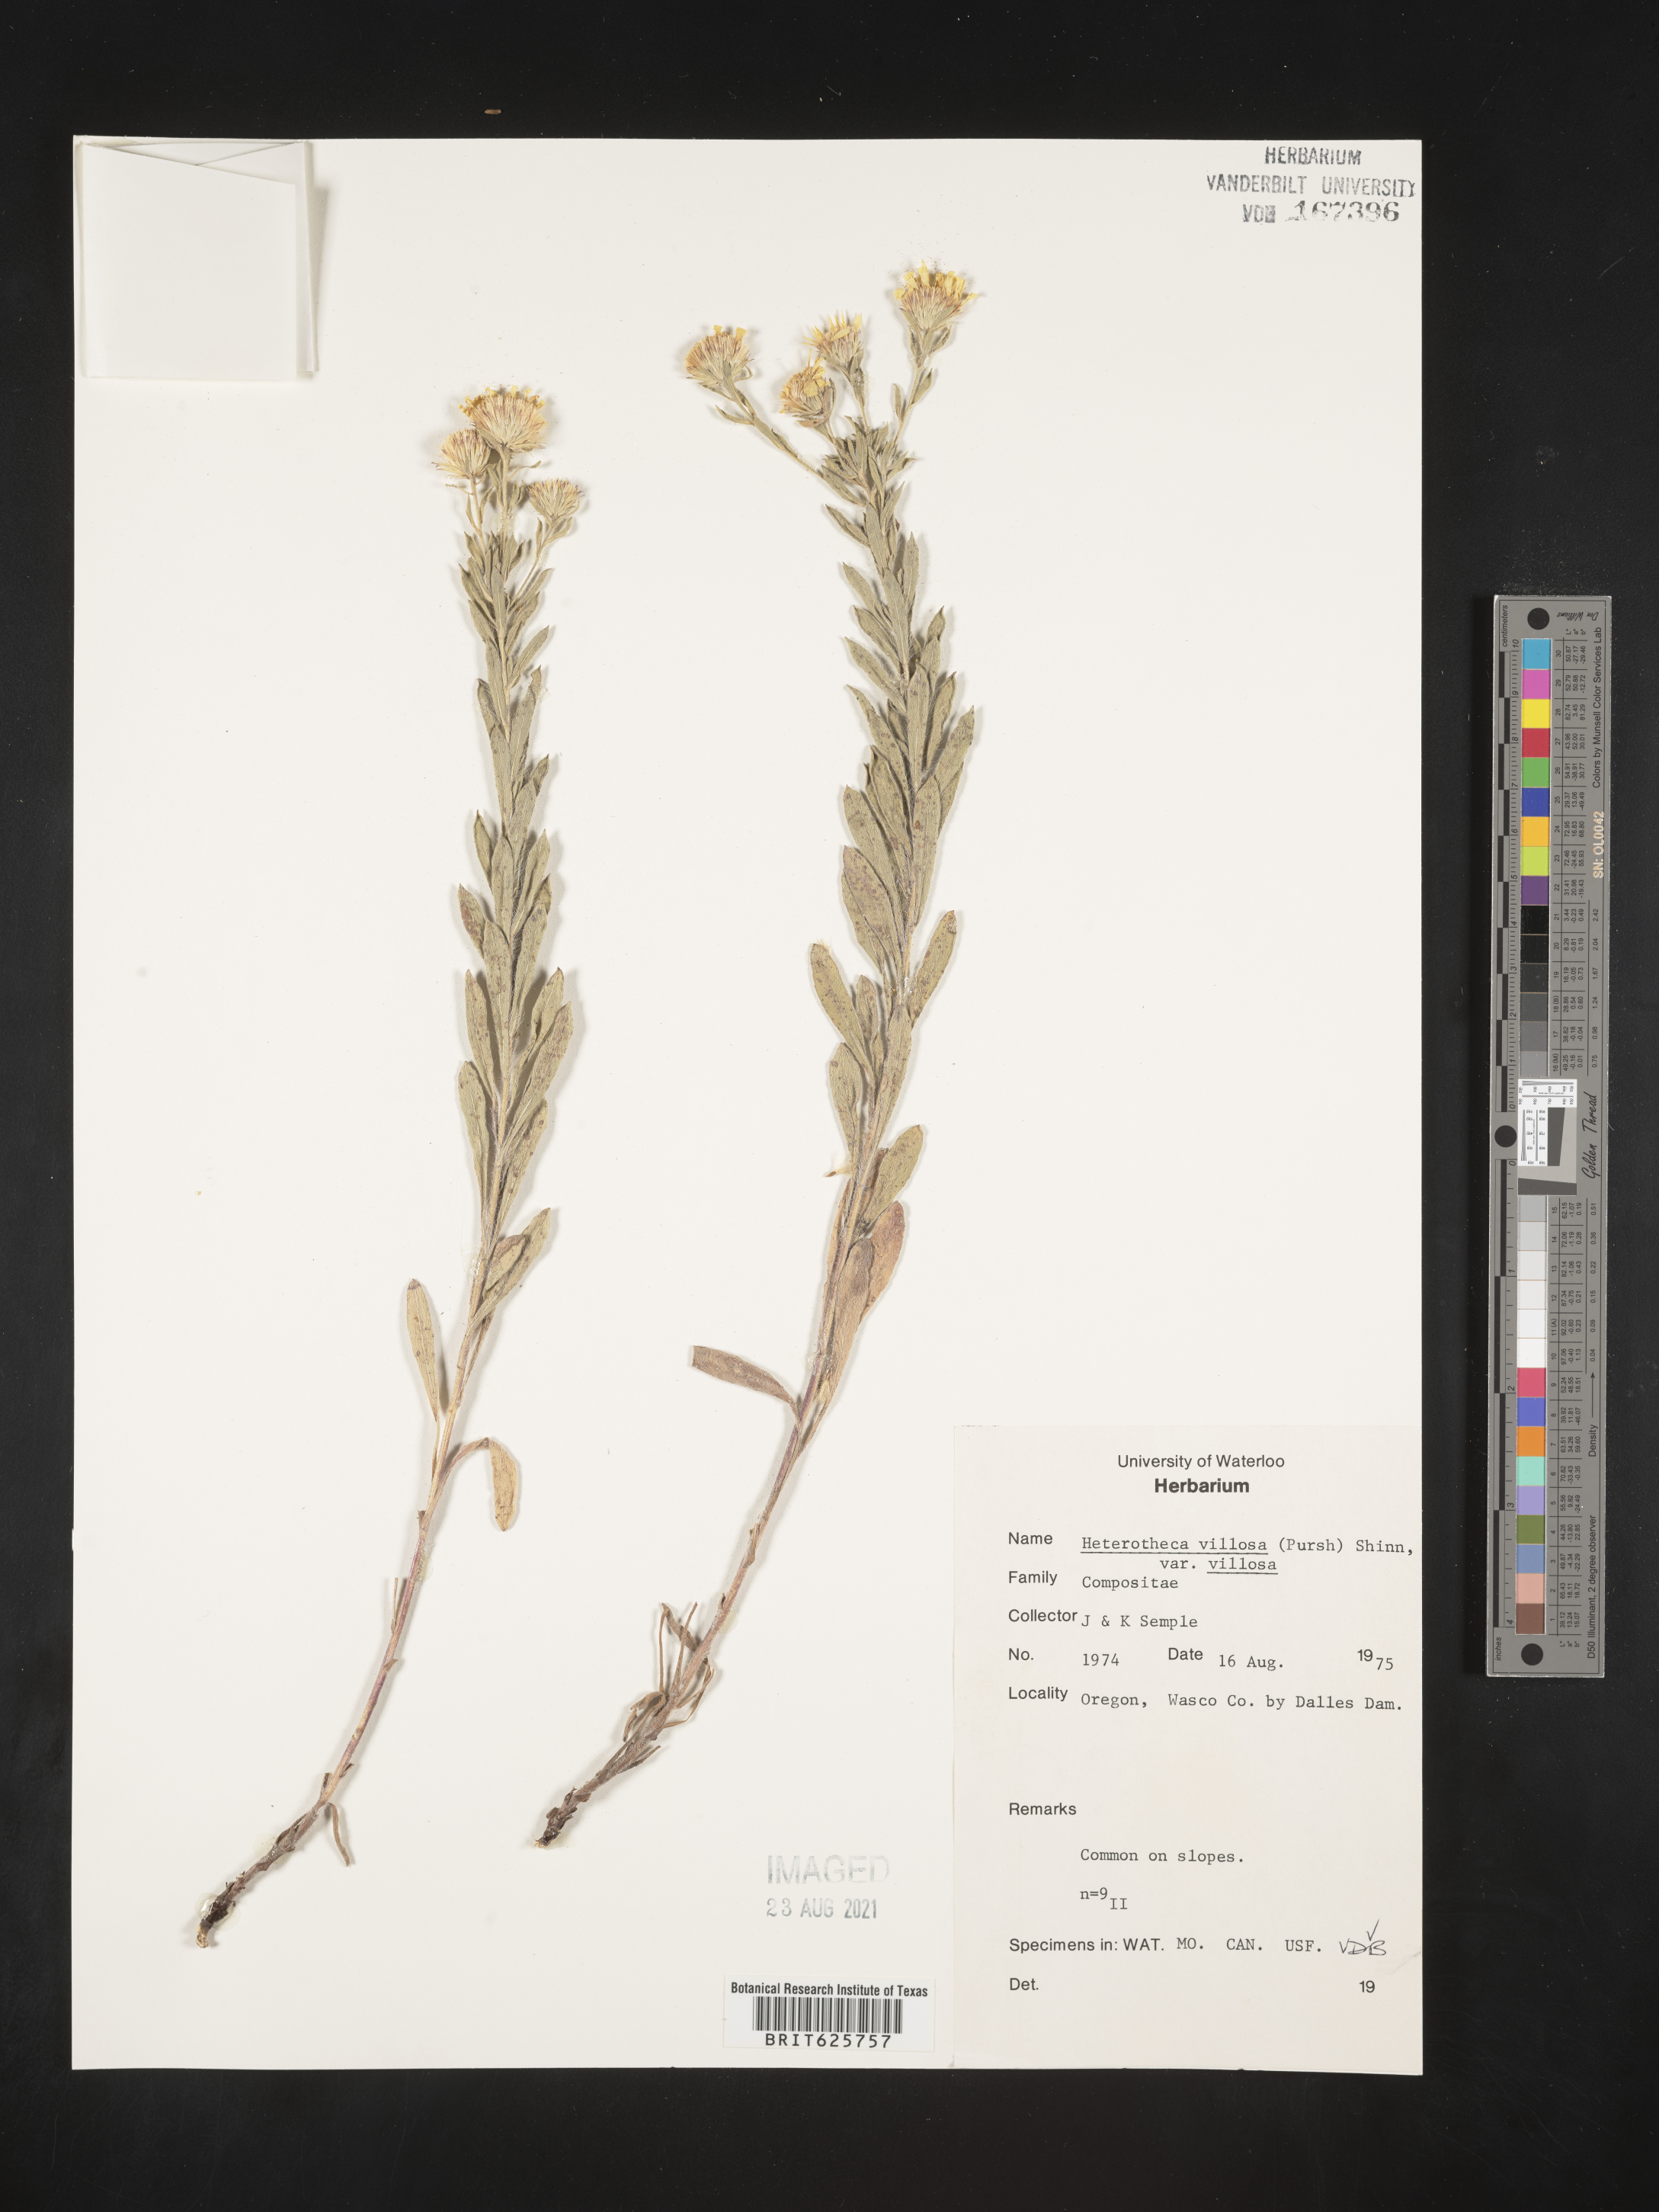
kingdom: Plantae
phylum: Tracheophyta
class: Magnoliopsida
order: Asterales
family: Asteraceae
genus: Heterotheca
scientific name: Heterotheca villosa
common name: Hairy false goldenaster
